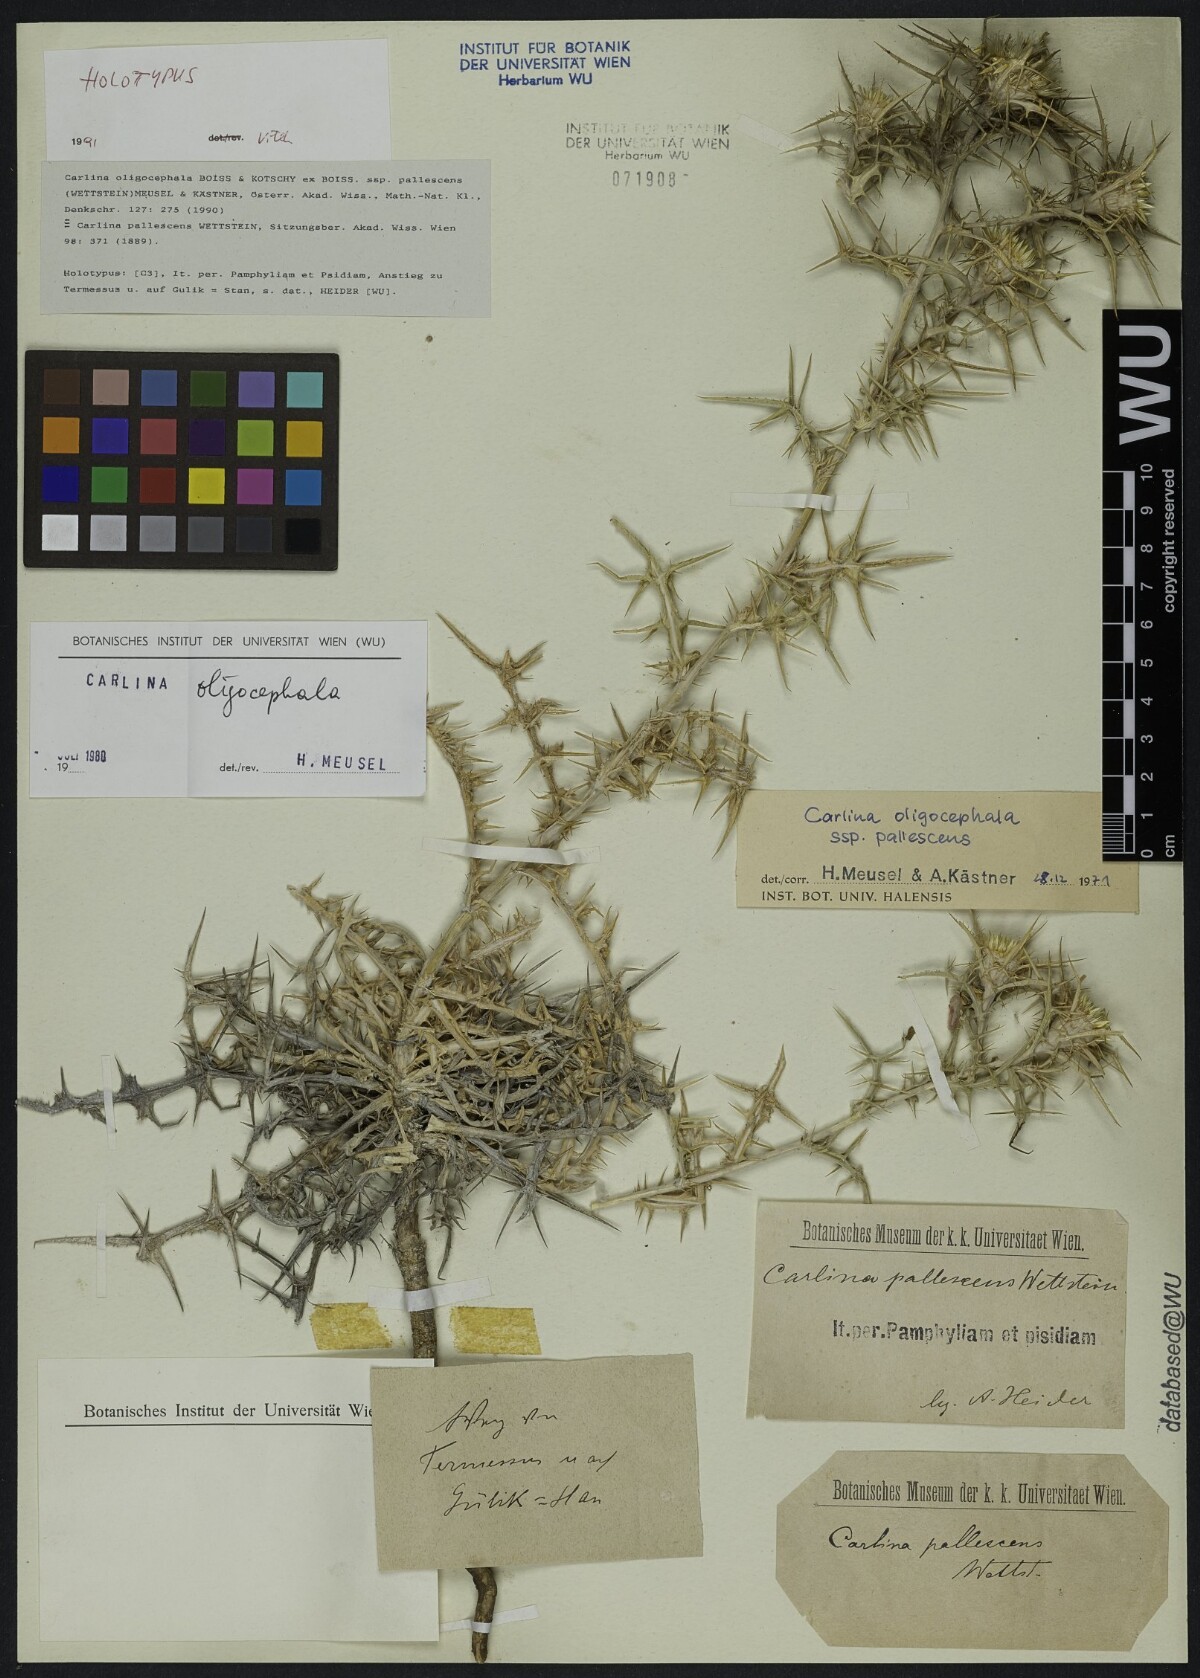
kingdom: Plantae
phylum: Tracheophyta
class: Magnoliopsida
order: Asterales
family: Asteraceae
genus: Carlina
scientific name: Carlina oligocephala
